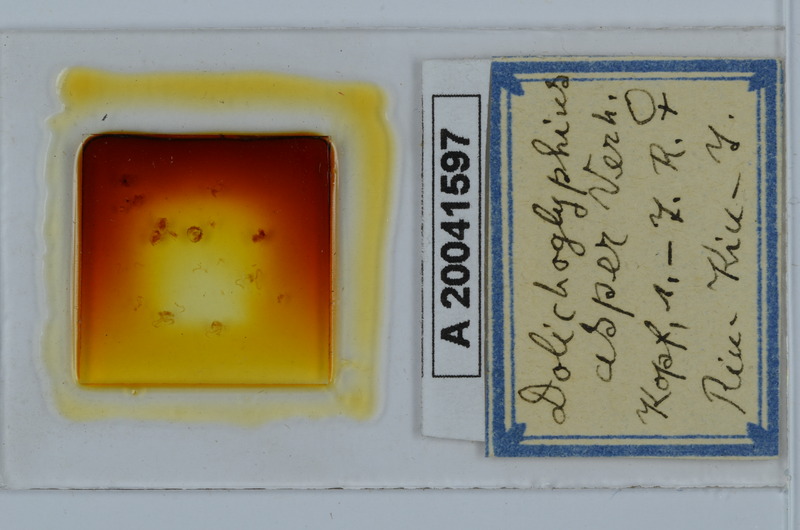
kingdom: Animalia
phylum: Arthropoda
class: Diplopoda
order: Spirostreptida
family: Cambalopsidae
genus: Dolichoglyphius
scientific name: Dolichoglyphius asper
